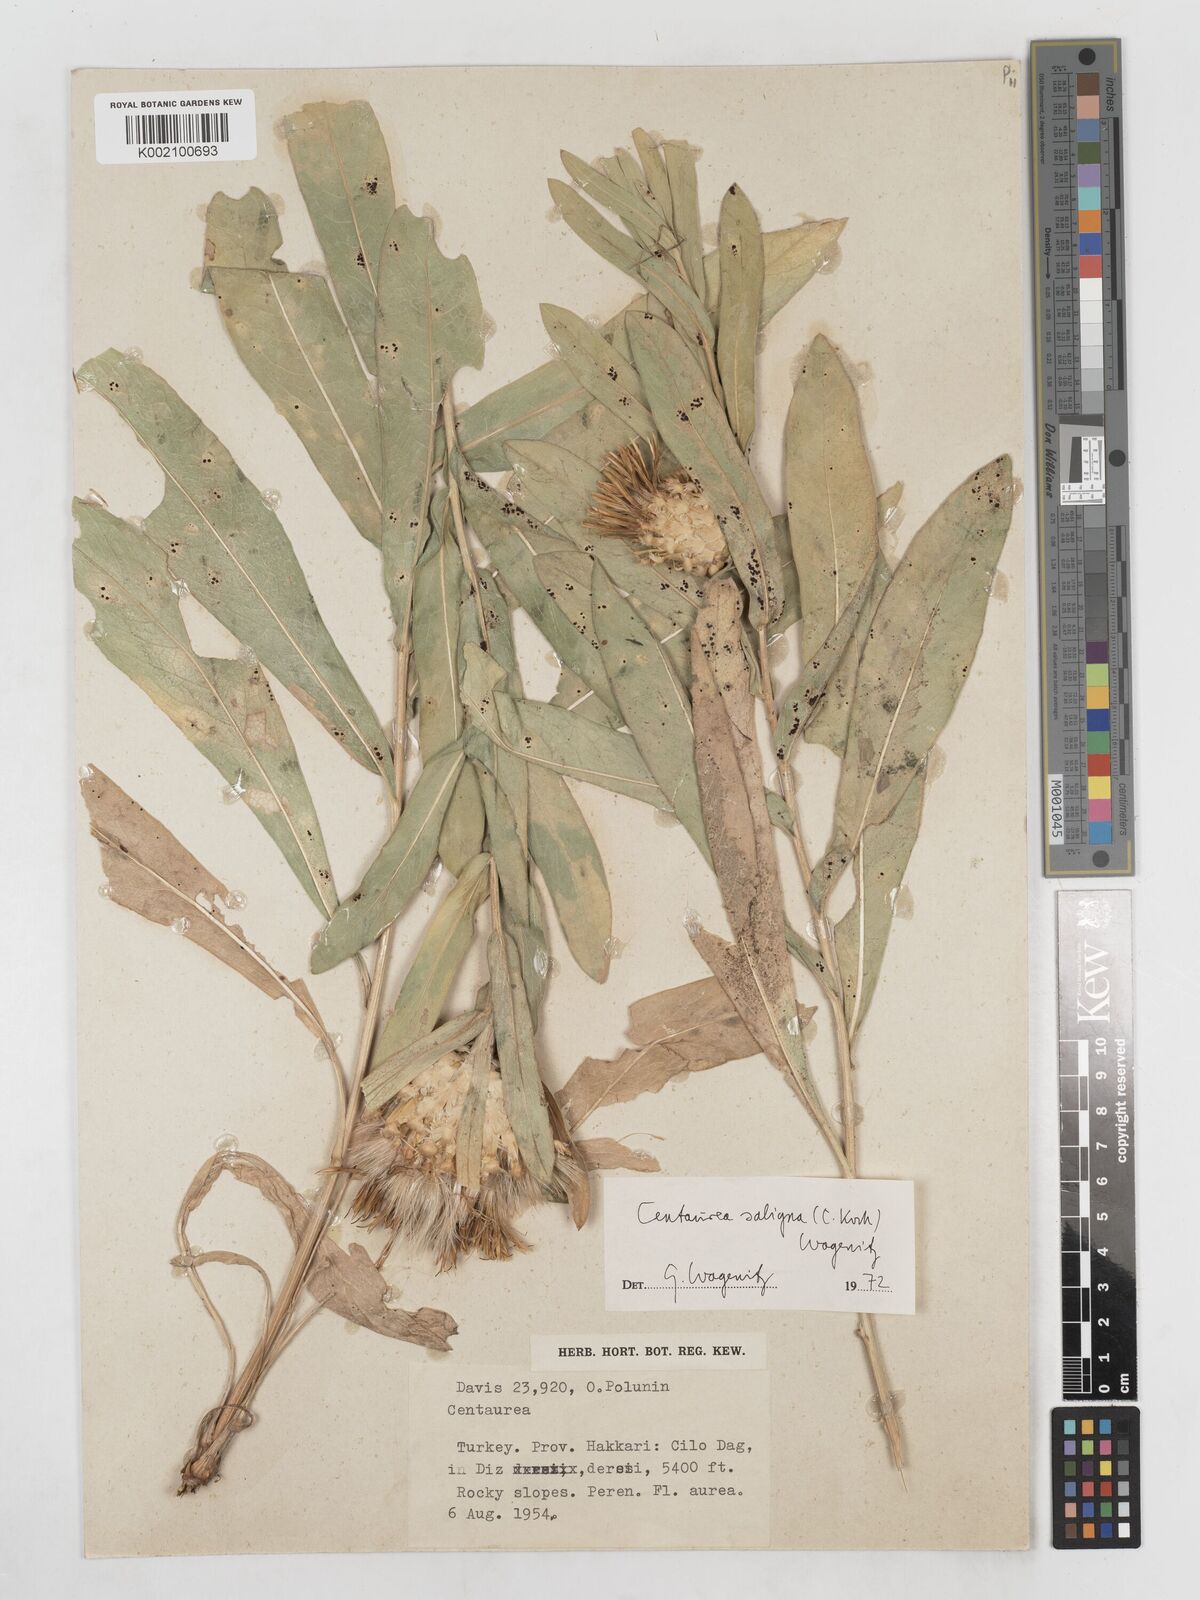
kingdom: Plantae
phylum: Tracheophyta
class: Magnoliopsida
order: Asterales
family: Asteraceae
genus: Centaurea
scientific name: Centaurea saligna
